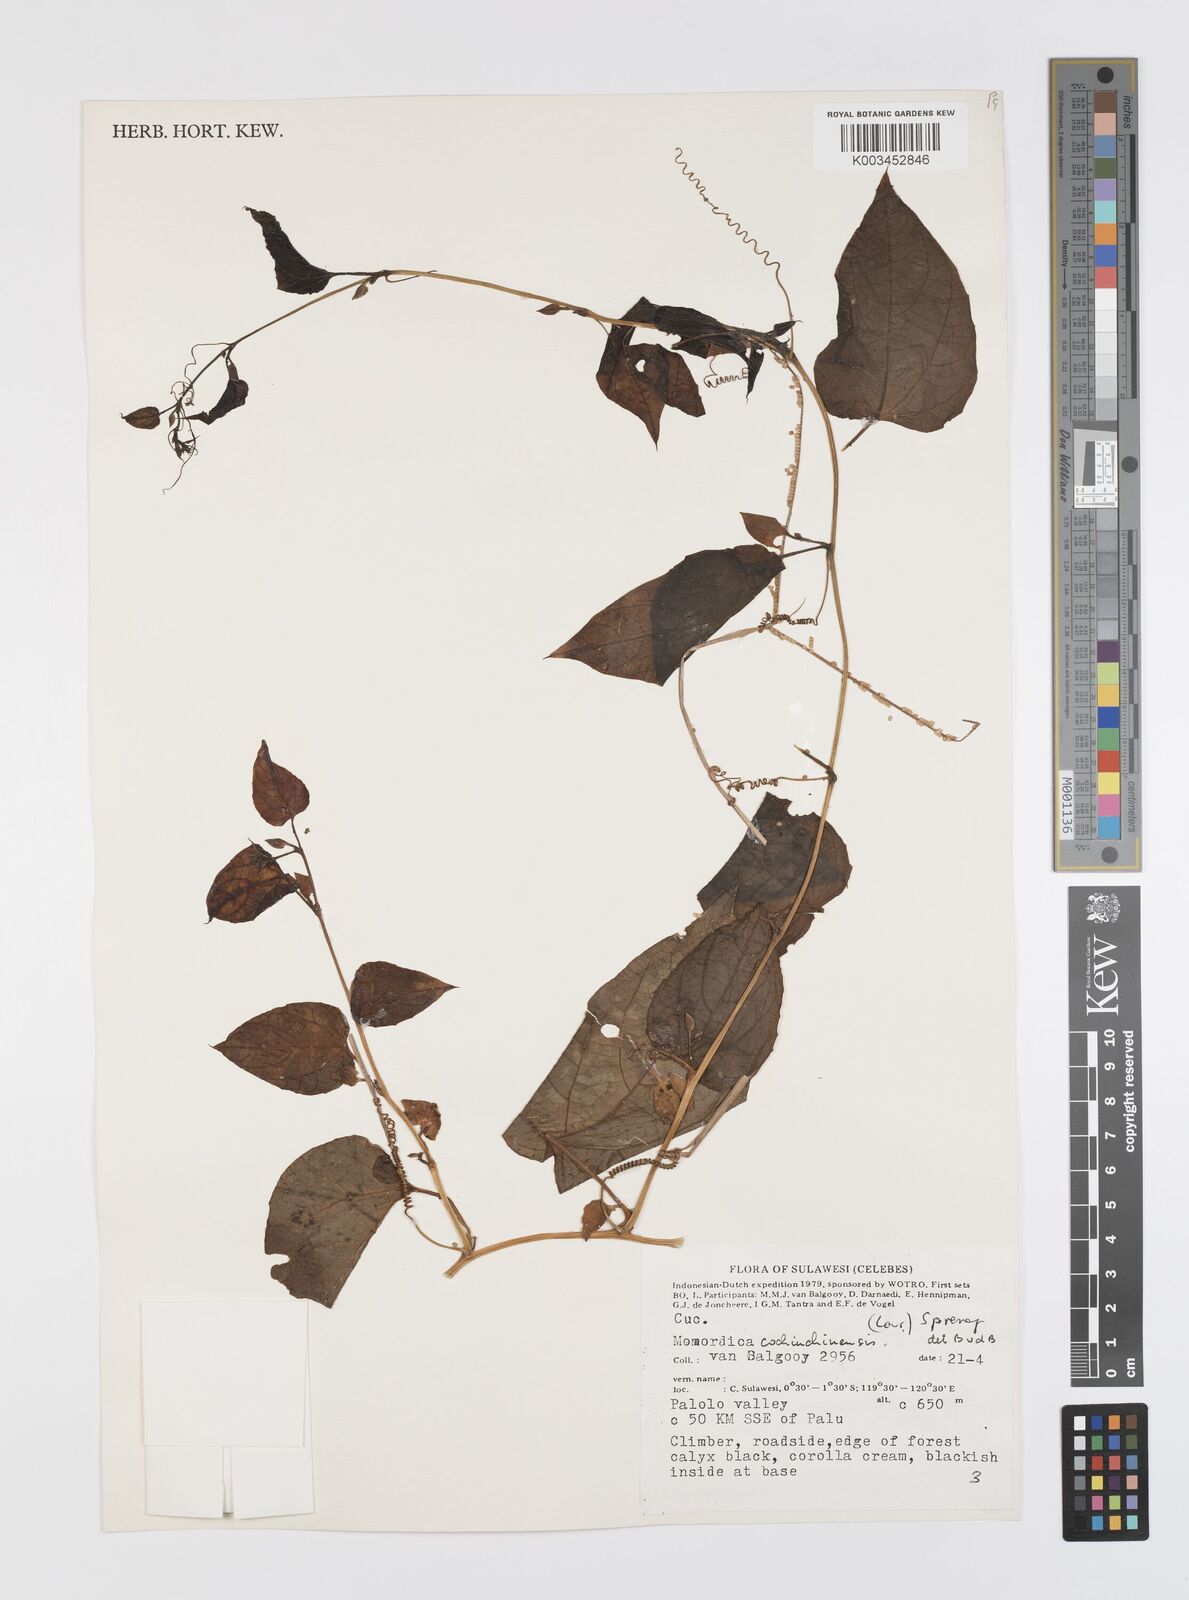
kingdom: Plantae
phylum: Tracheophyta
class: Magnoliopsida
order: Cucurbitales
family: Cucurbitaceae
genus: Momordica
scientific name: Momordica cochinchinensis
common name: Chinese bitter-cucumber
